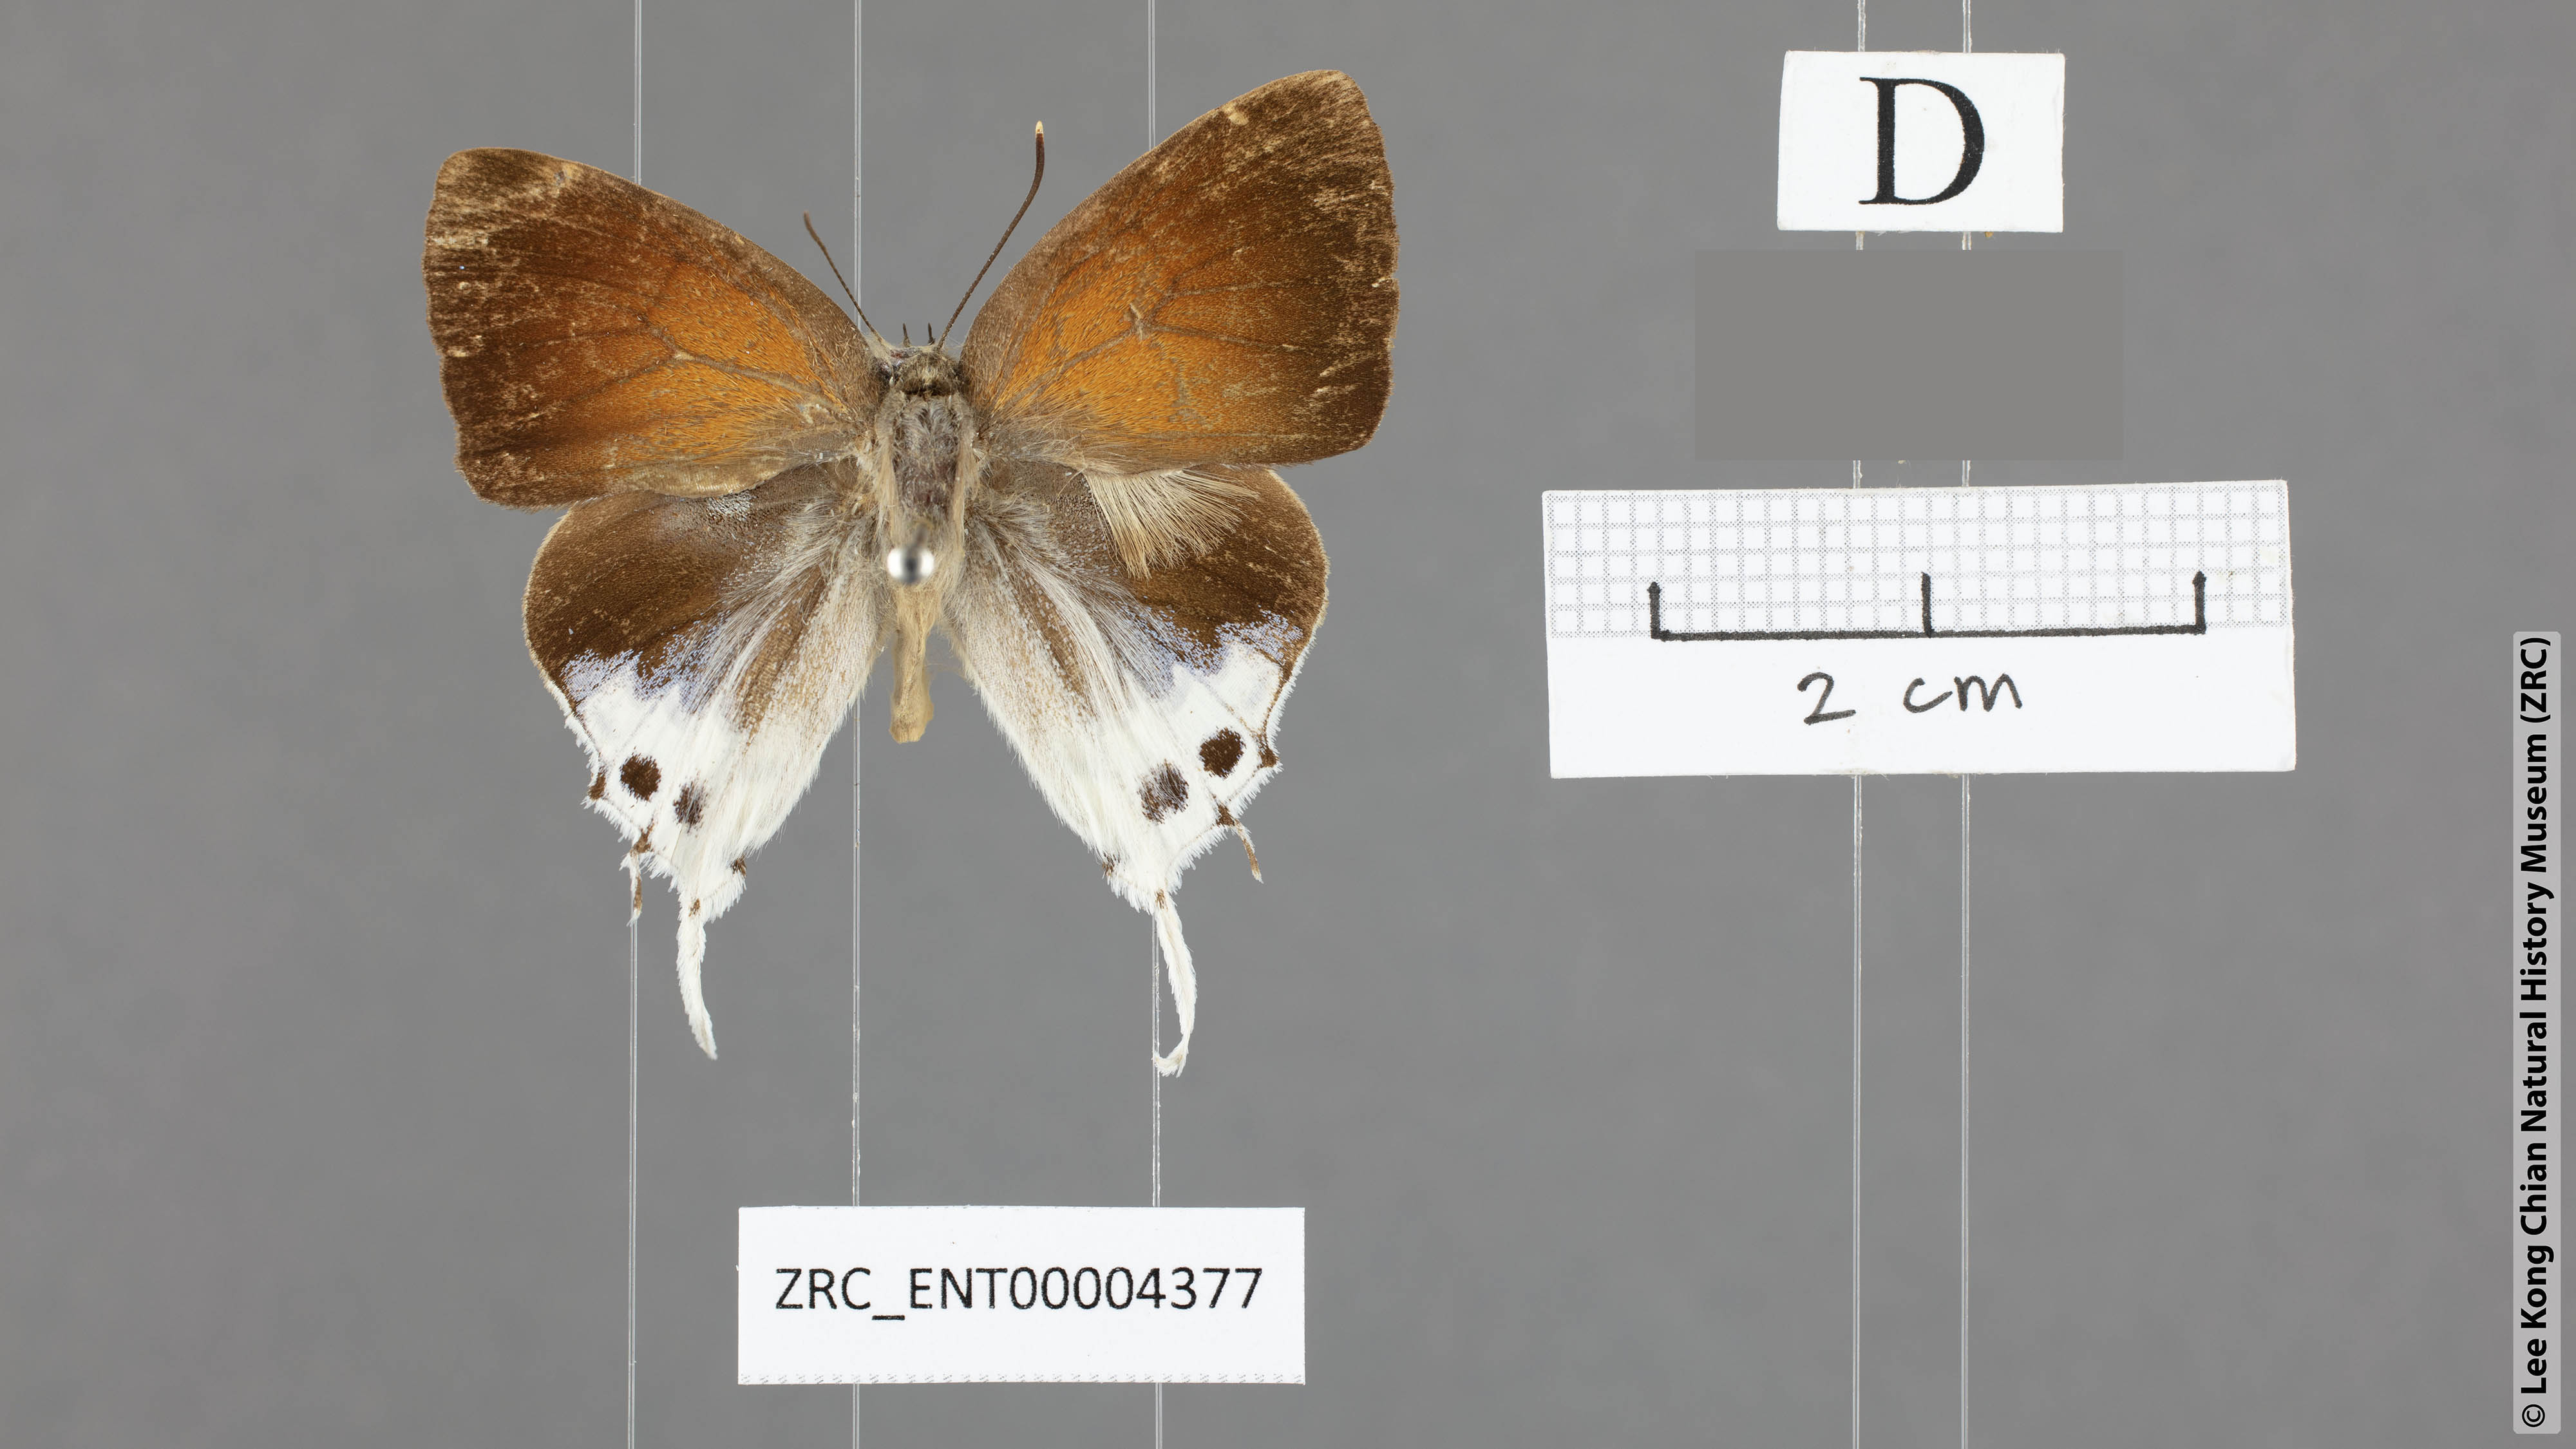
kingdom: Animalia
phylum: Arthropoda
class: Insecta
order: Lepidoptera
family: Lycaenidae
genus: Mantoides
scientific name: Mantoides gama
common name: Distant's imperial
